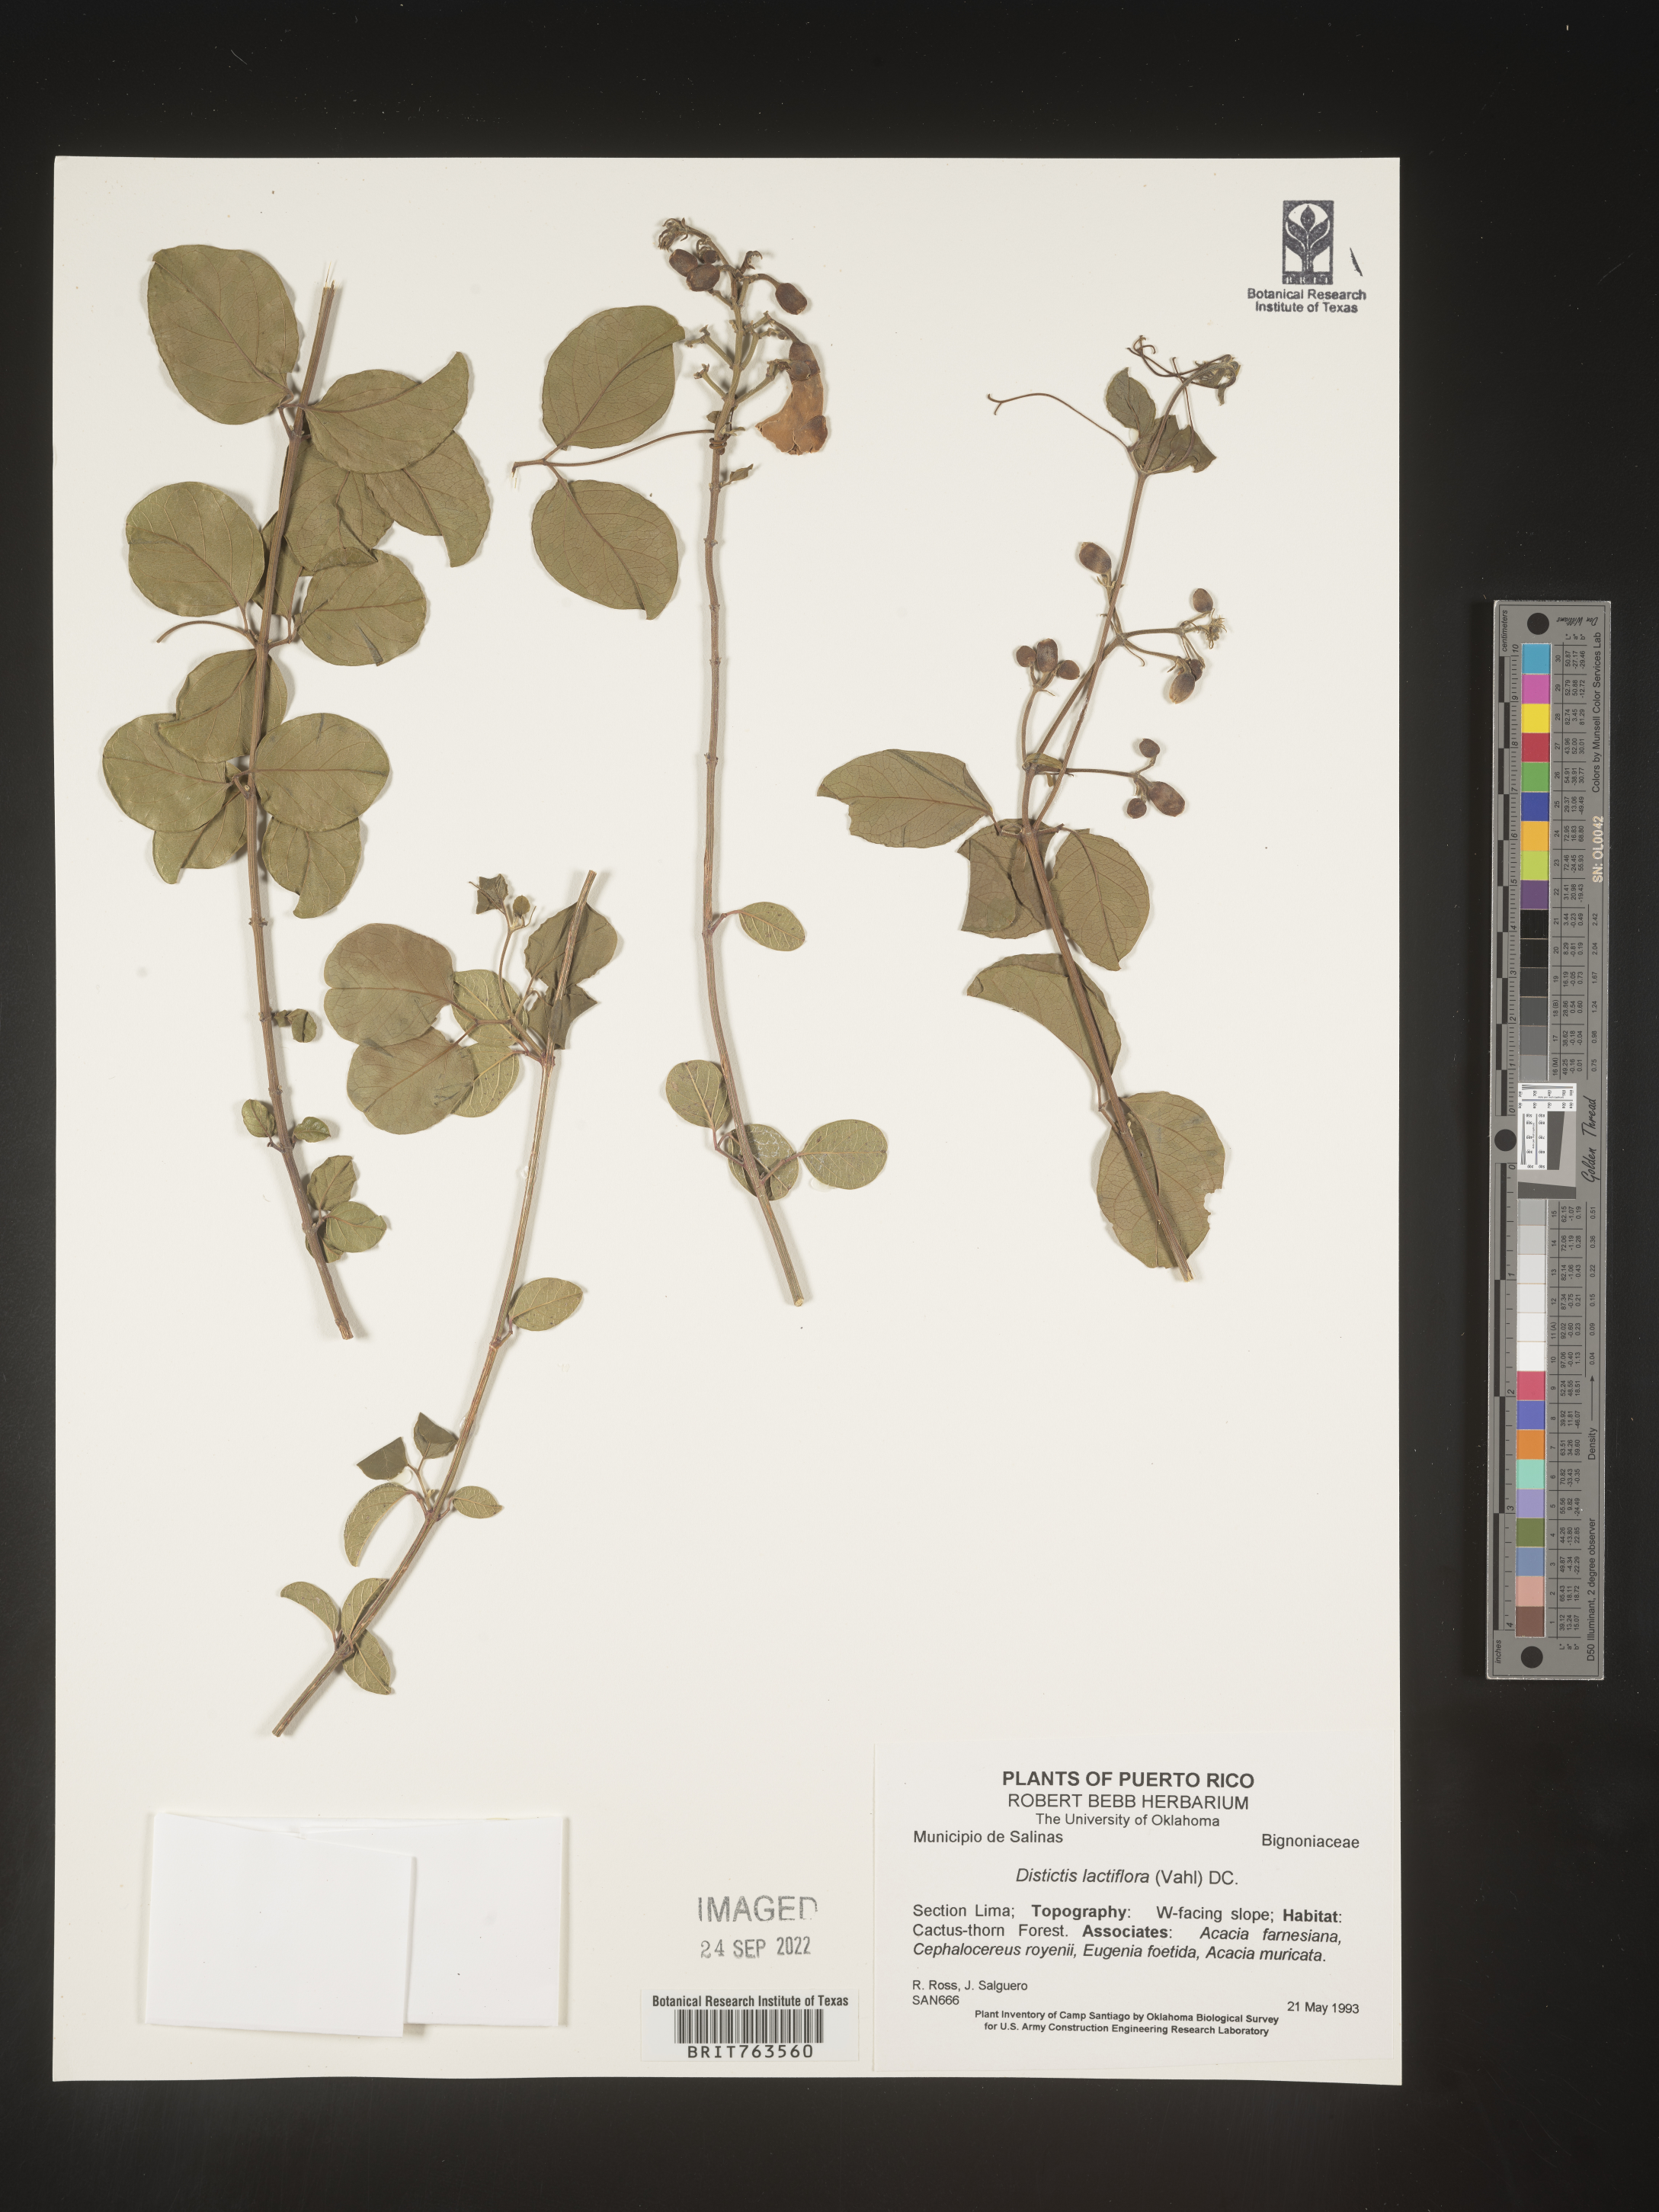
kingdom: Plantae
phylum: Tracheophyta
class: Magnoliopsida
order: Lamiales
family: Bignoniaceae
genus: Amphilophium
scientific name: Amphilophium
